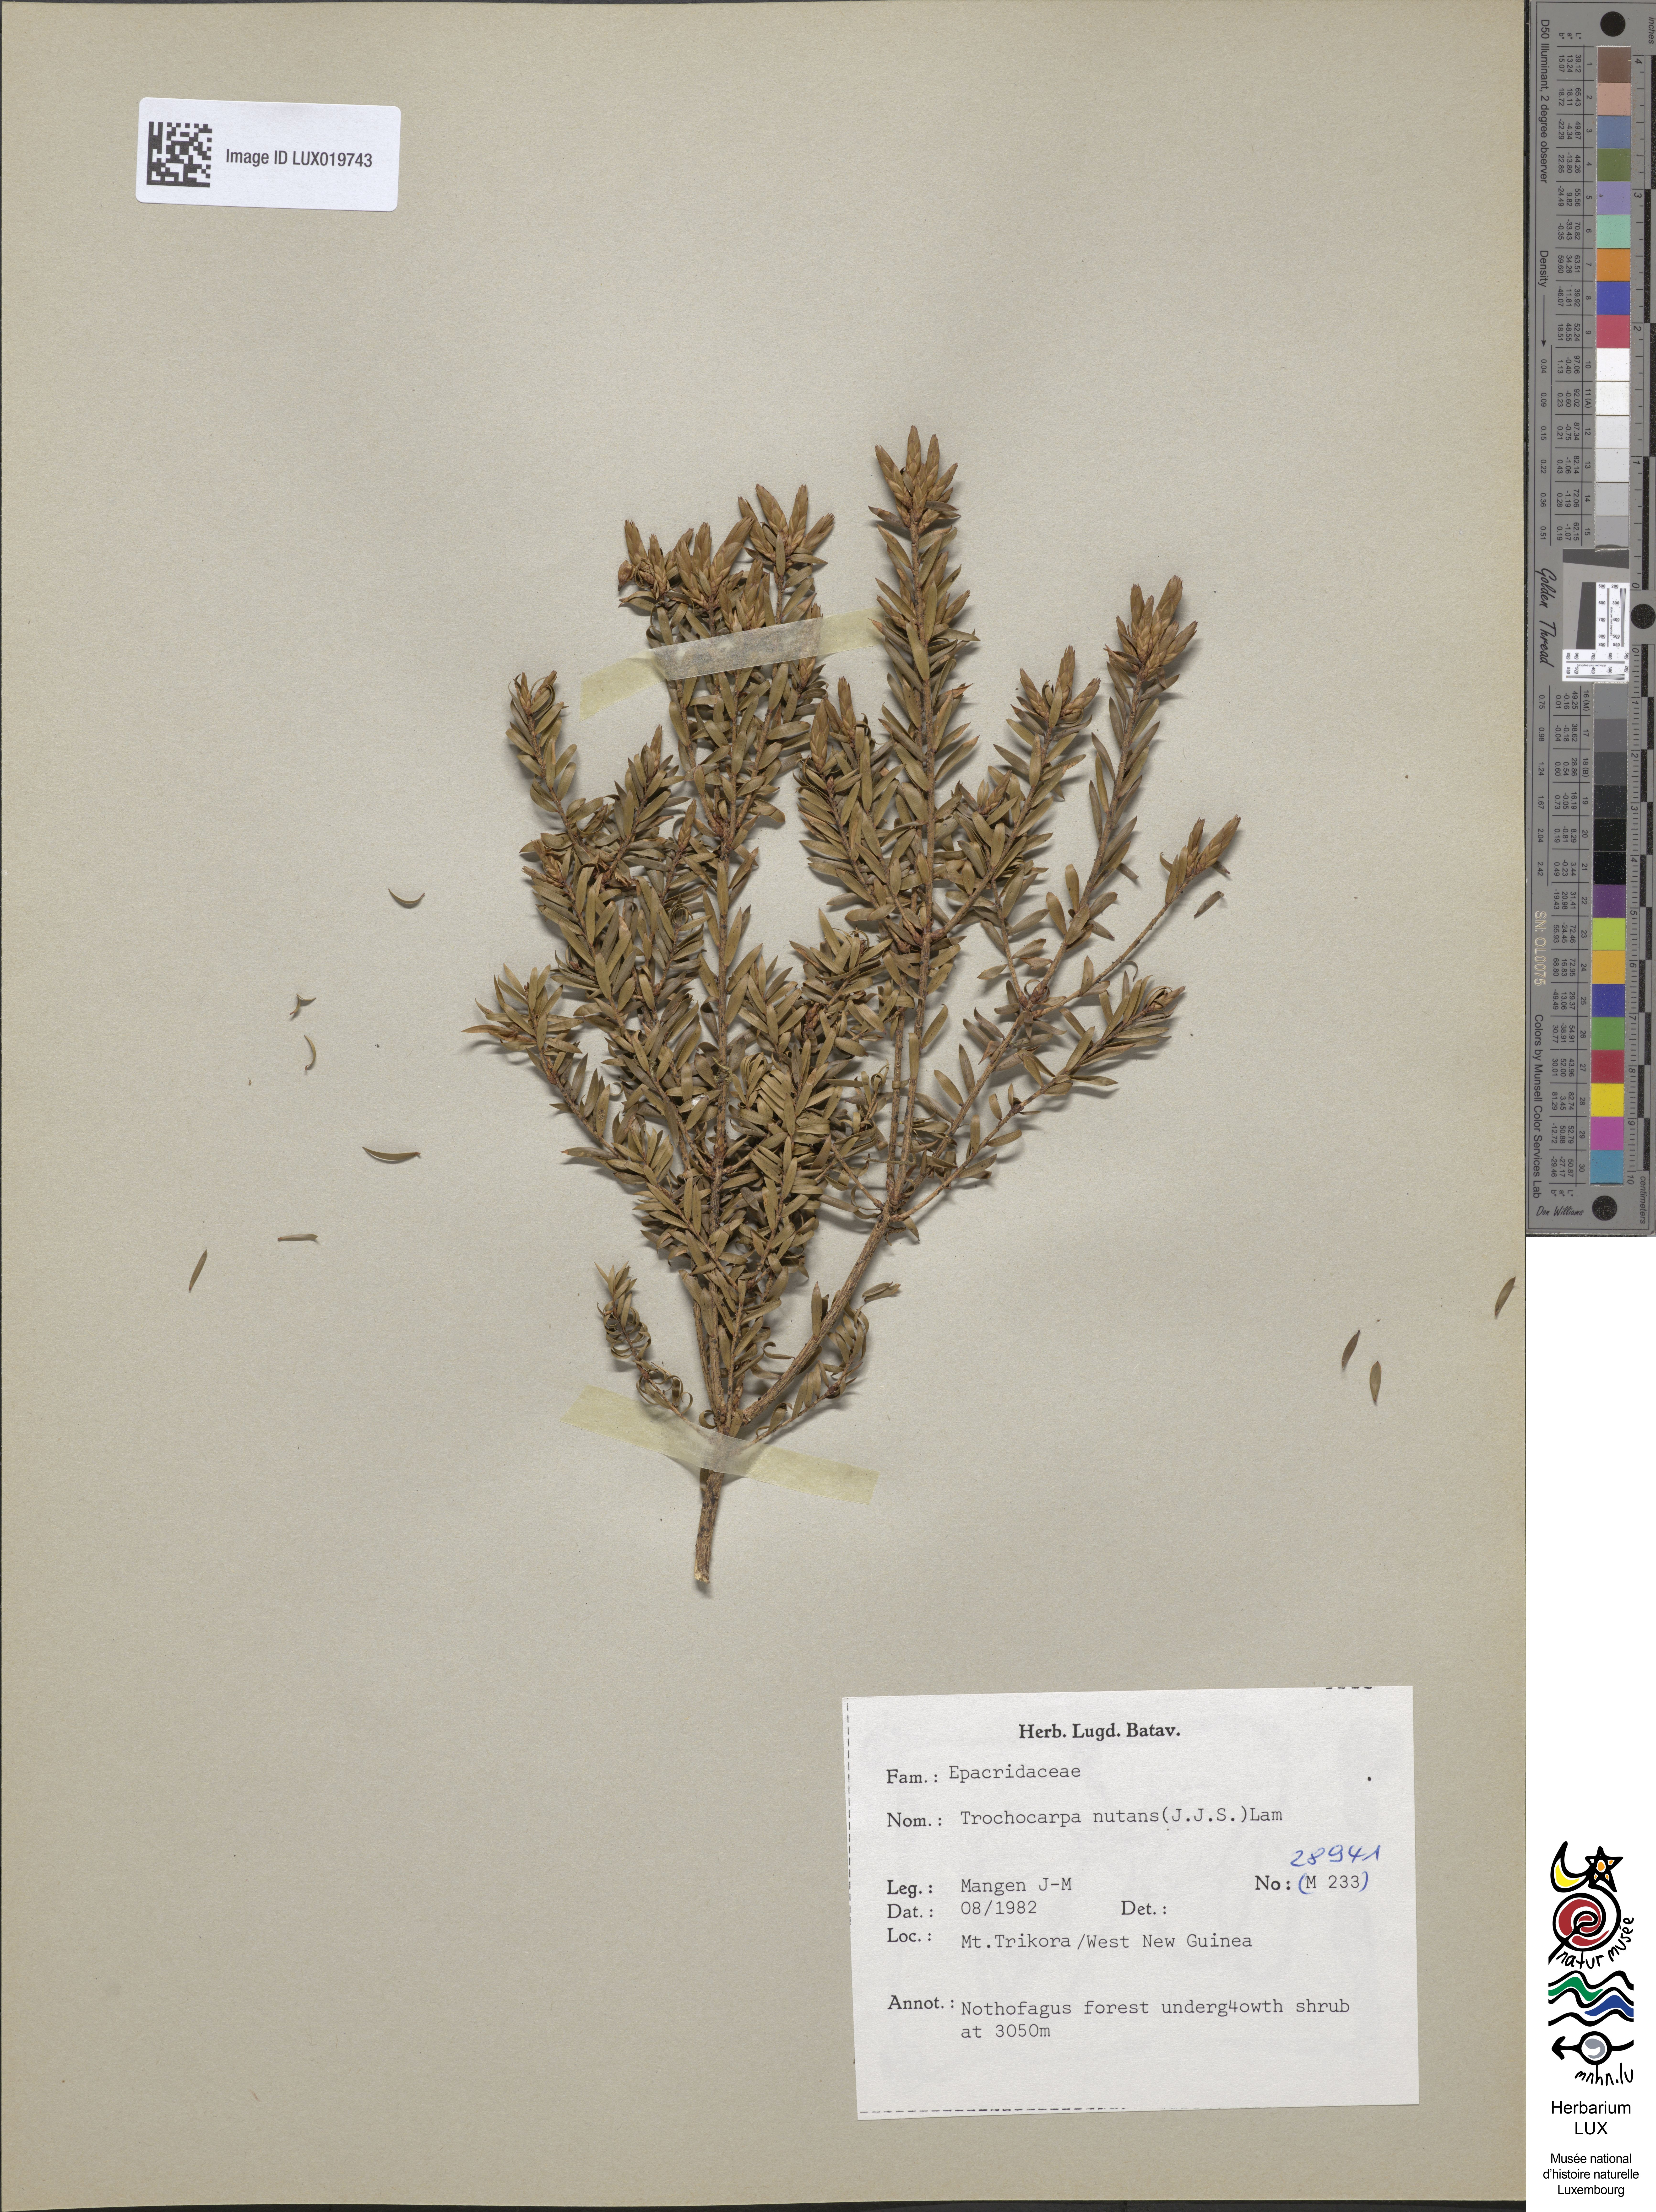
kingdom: Plantae
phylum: Tracheophyta
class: Magnoliopsida
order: Ericales
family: Ericaceae
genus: Trochocarpa
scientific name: Trochocarpa nutans
